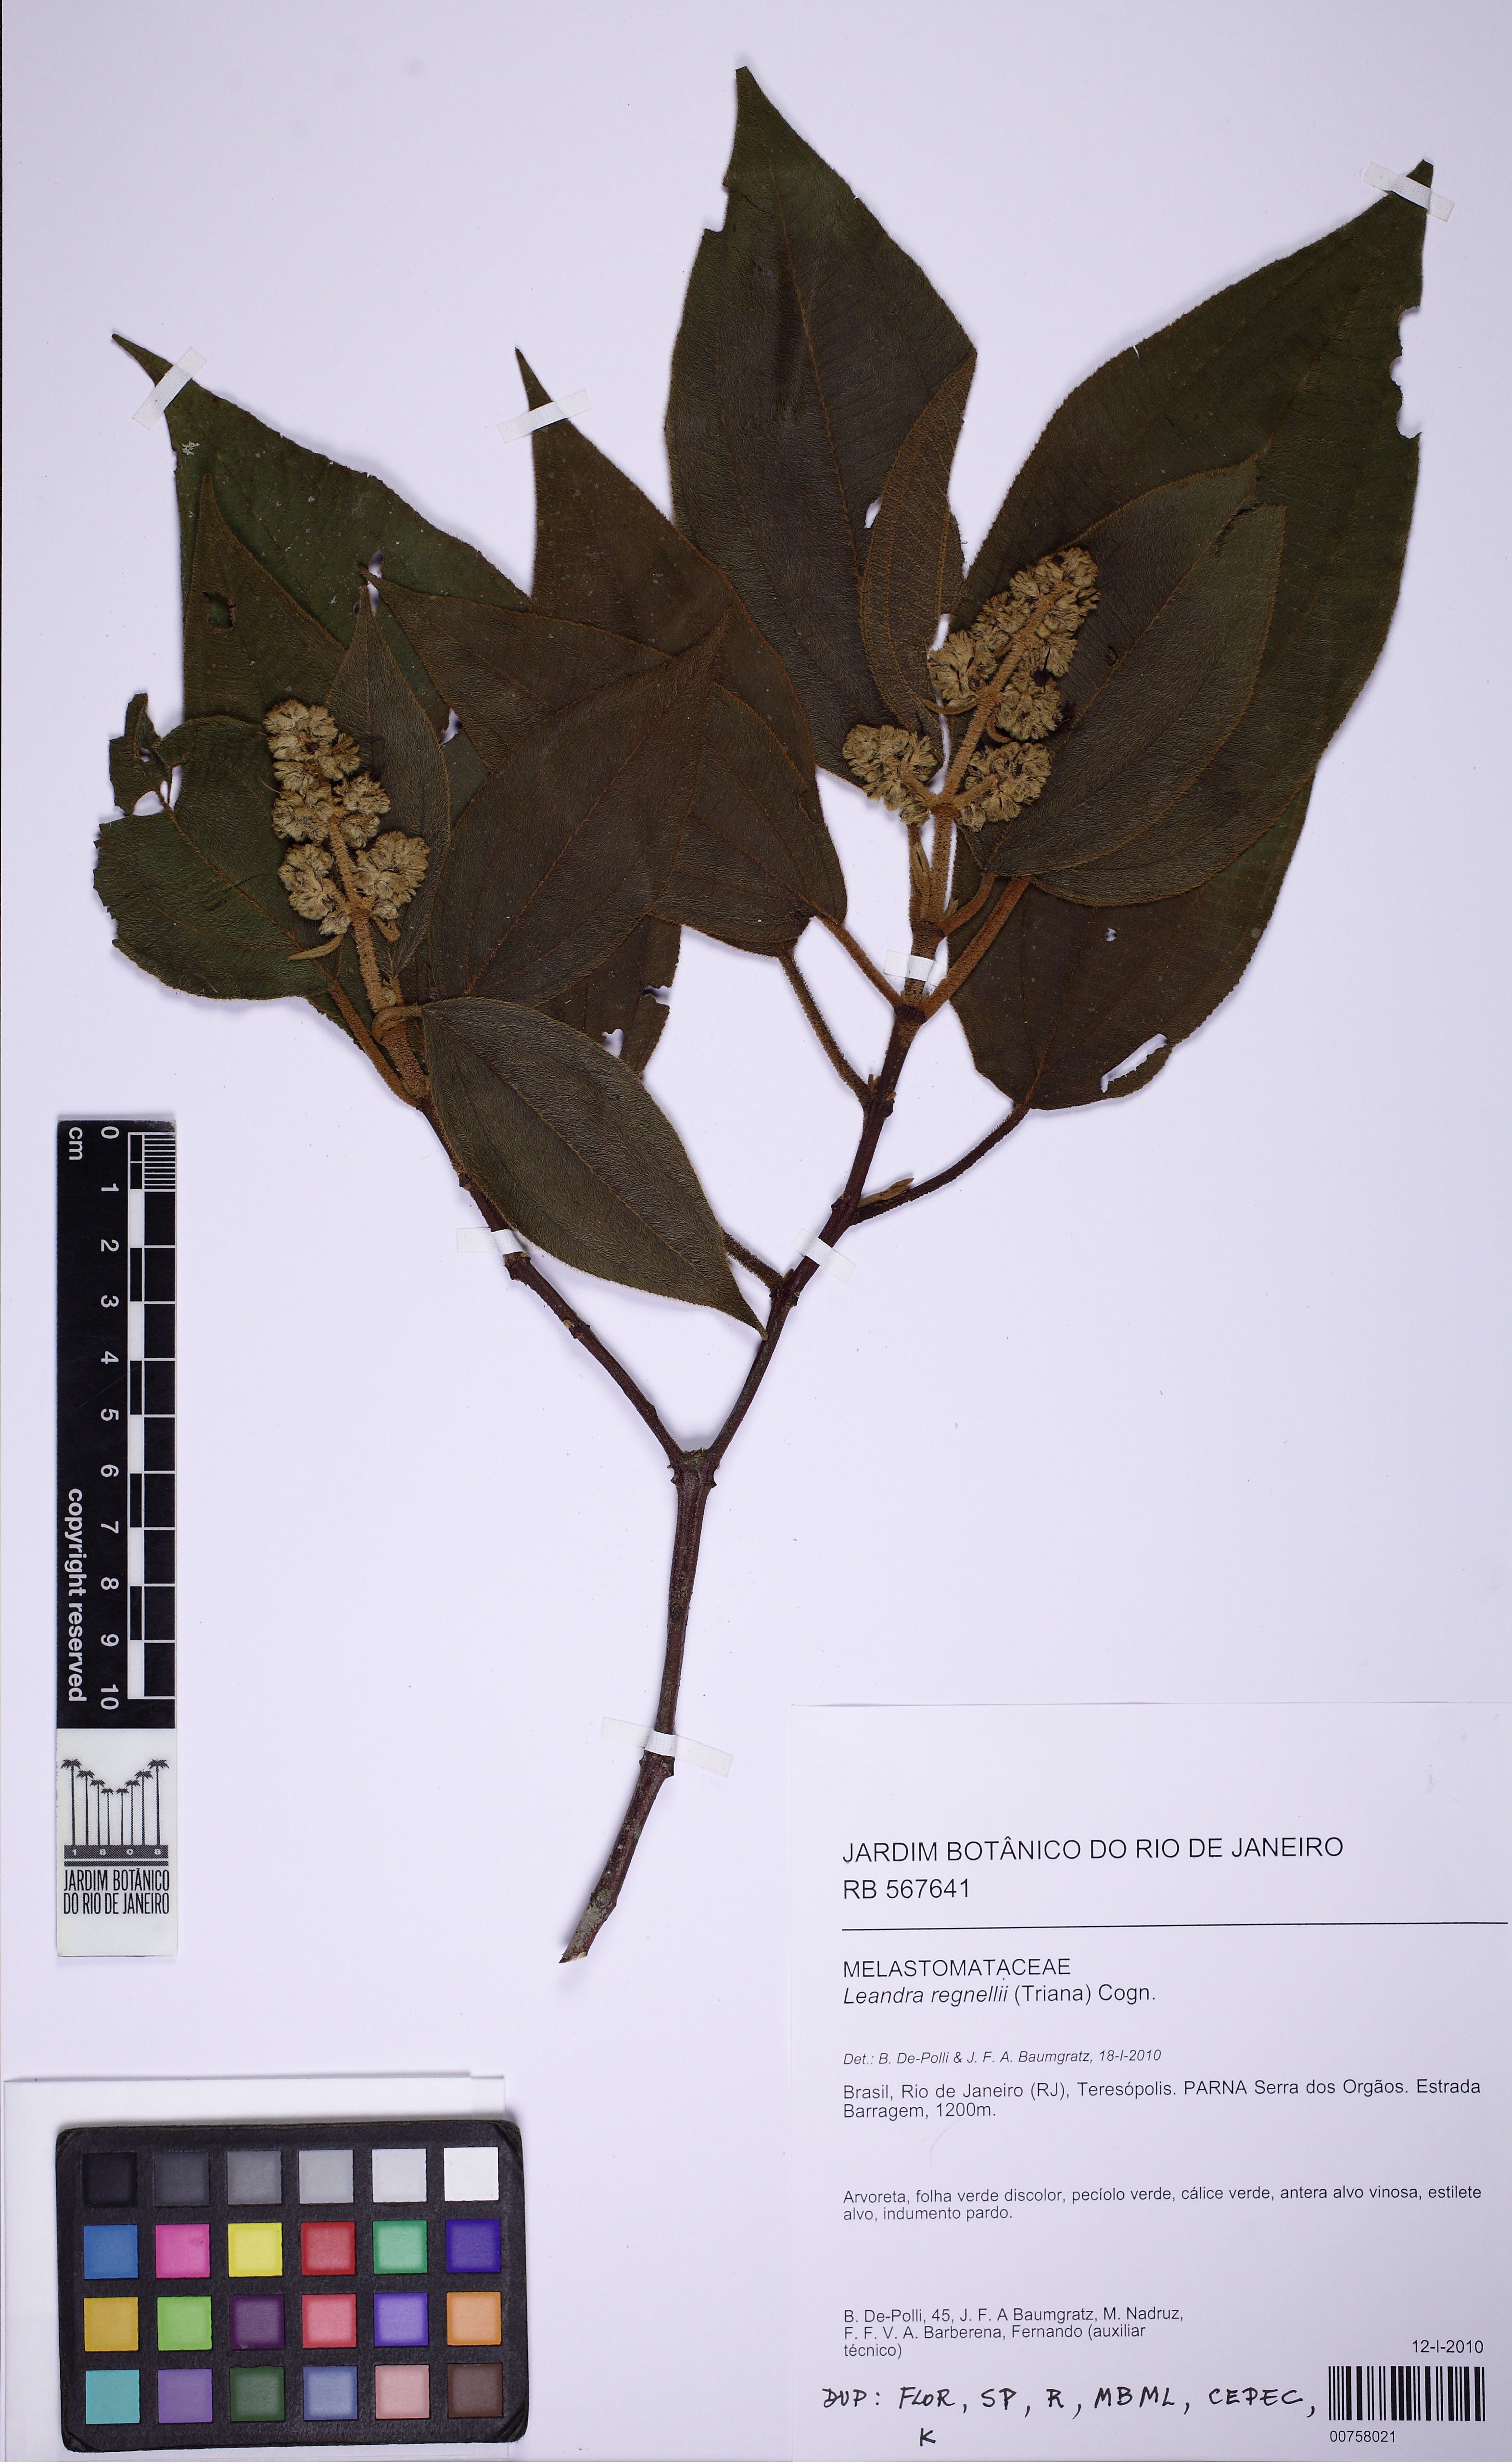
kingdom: Plantae
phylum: Tracheophyta
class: Magnoliopsida
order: Myrtales
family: Melastomataceae
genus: Miconia
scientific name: Miconia dasytricha
